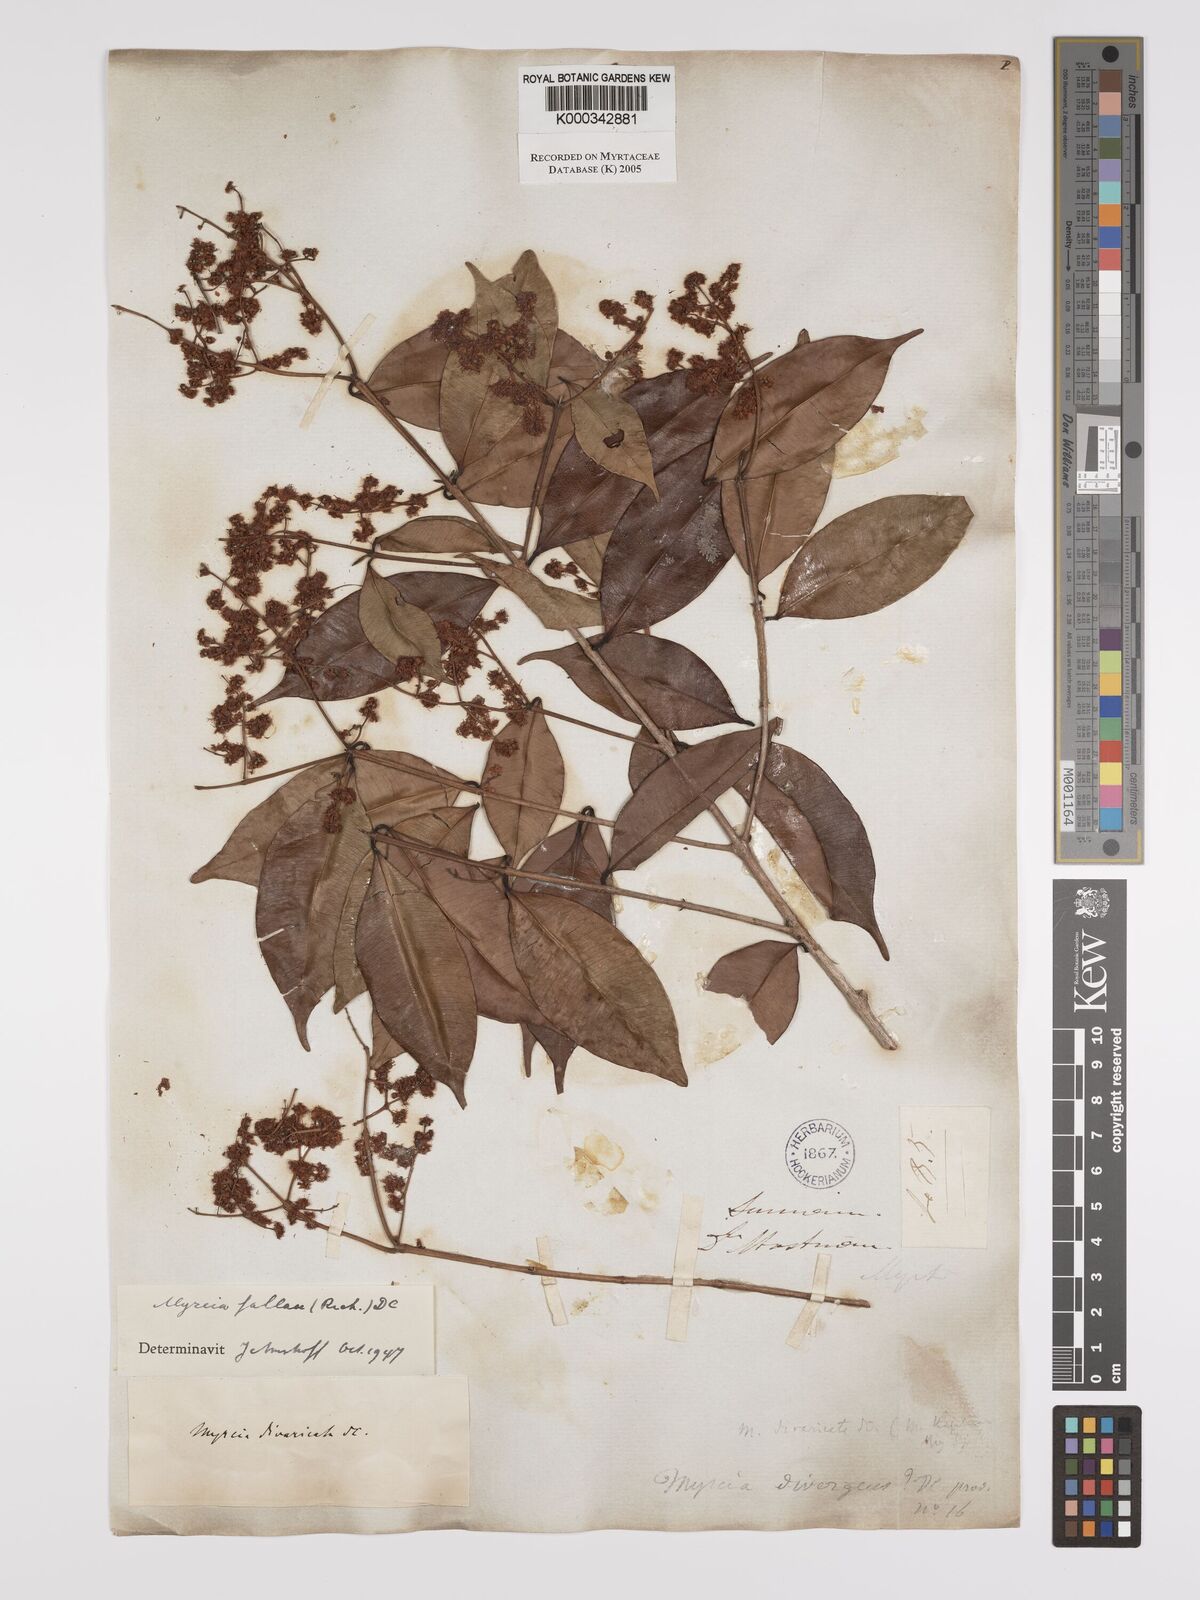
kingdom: Plantae
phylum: Tracheophyta
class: Magnoliopsida
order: Myrtales
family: Myrtaceae
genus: Myrcia
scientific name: Myrcia splendens
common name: Surinam cherry
